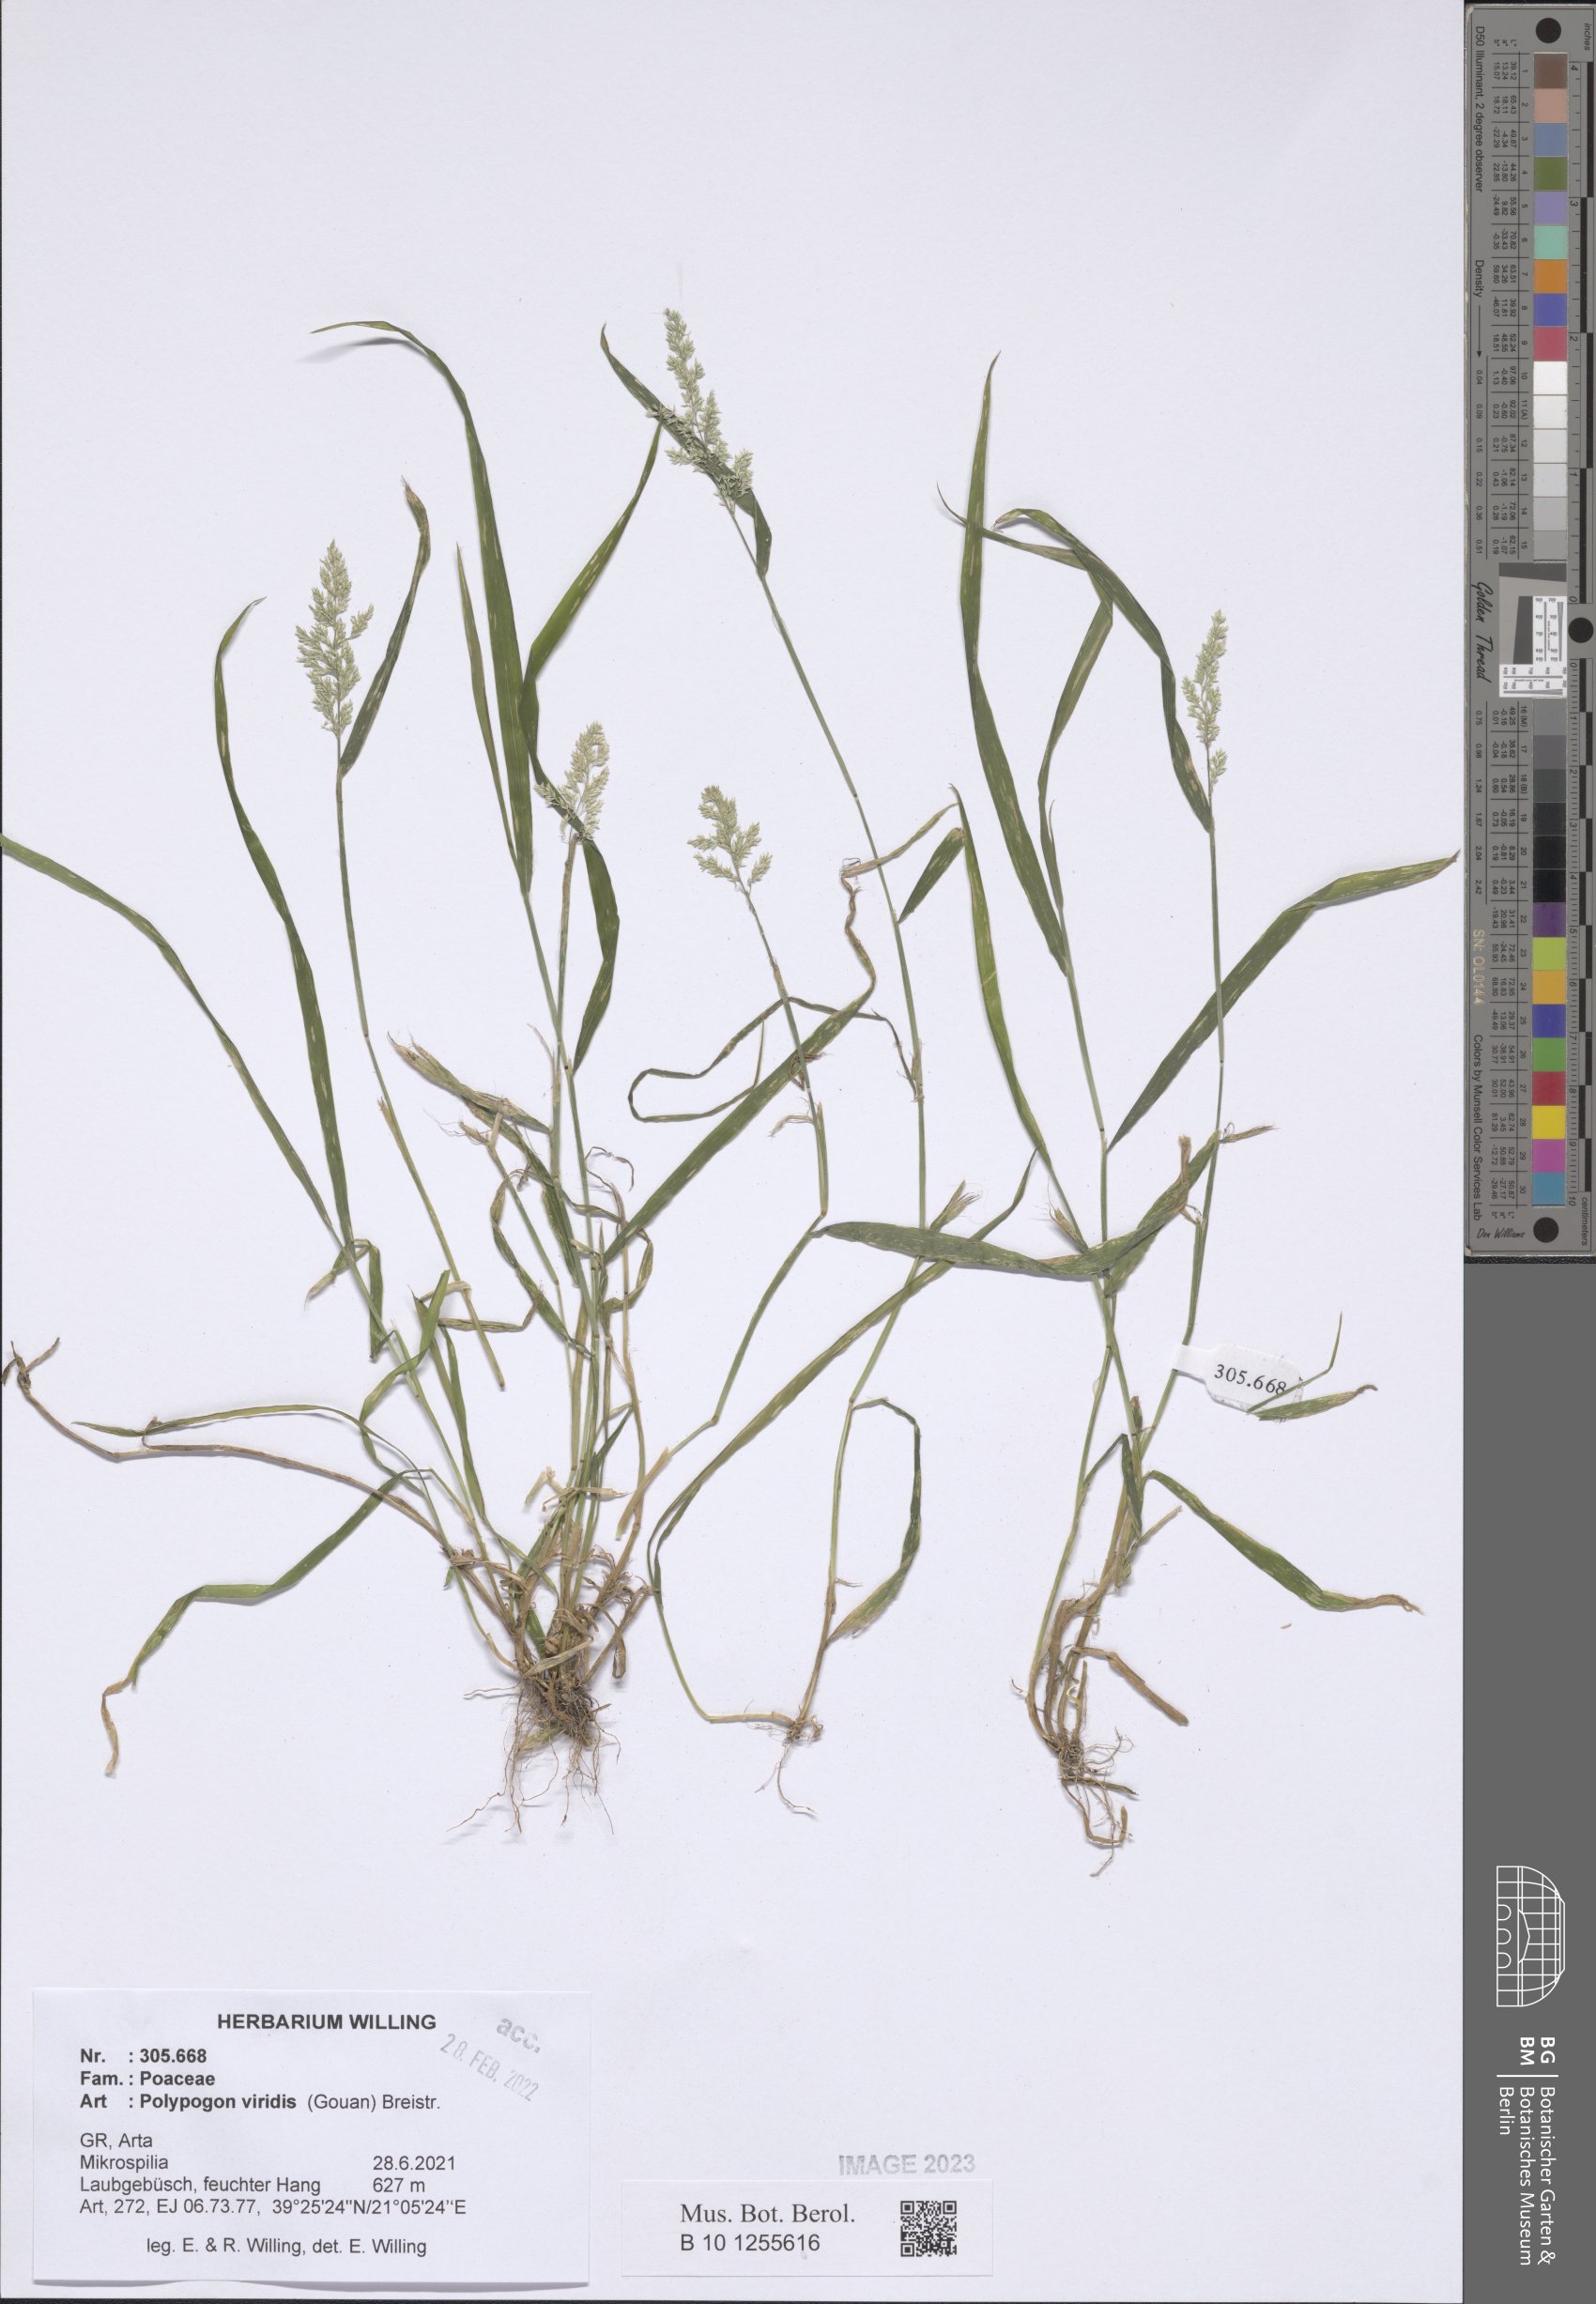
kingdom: Plantae
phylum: Tracheophyta
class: Liliopsida
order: Poales
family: Poaceae
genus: Polypogon
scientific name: Polypogon viridis
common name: Water bent
